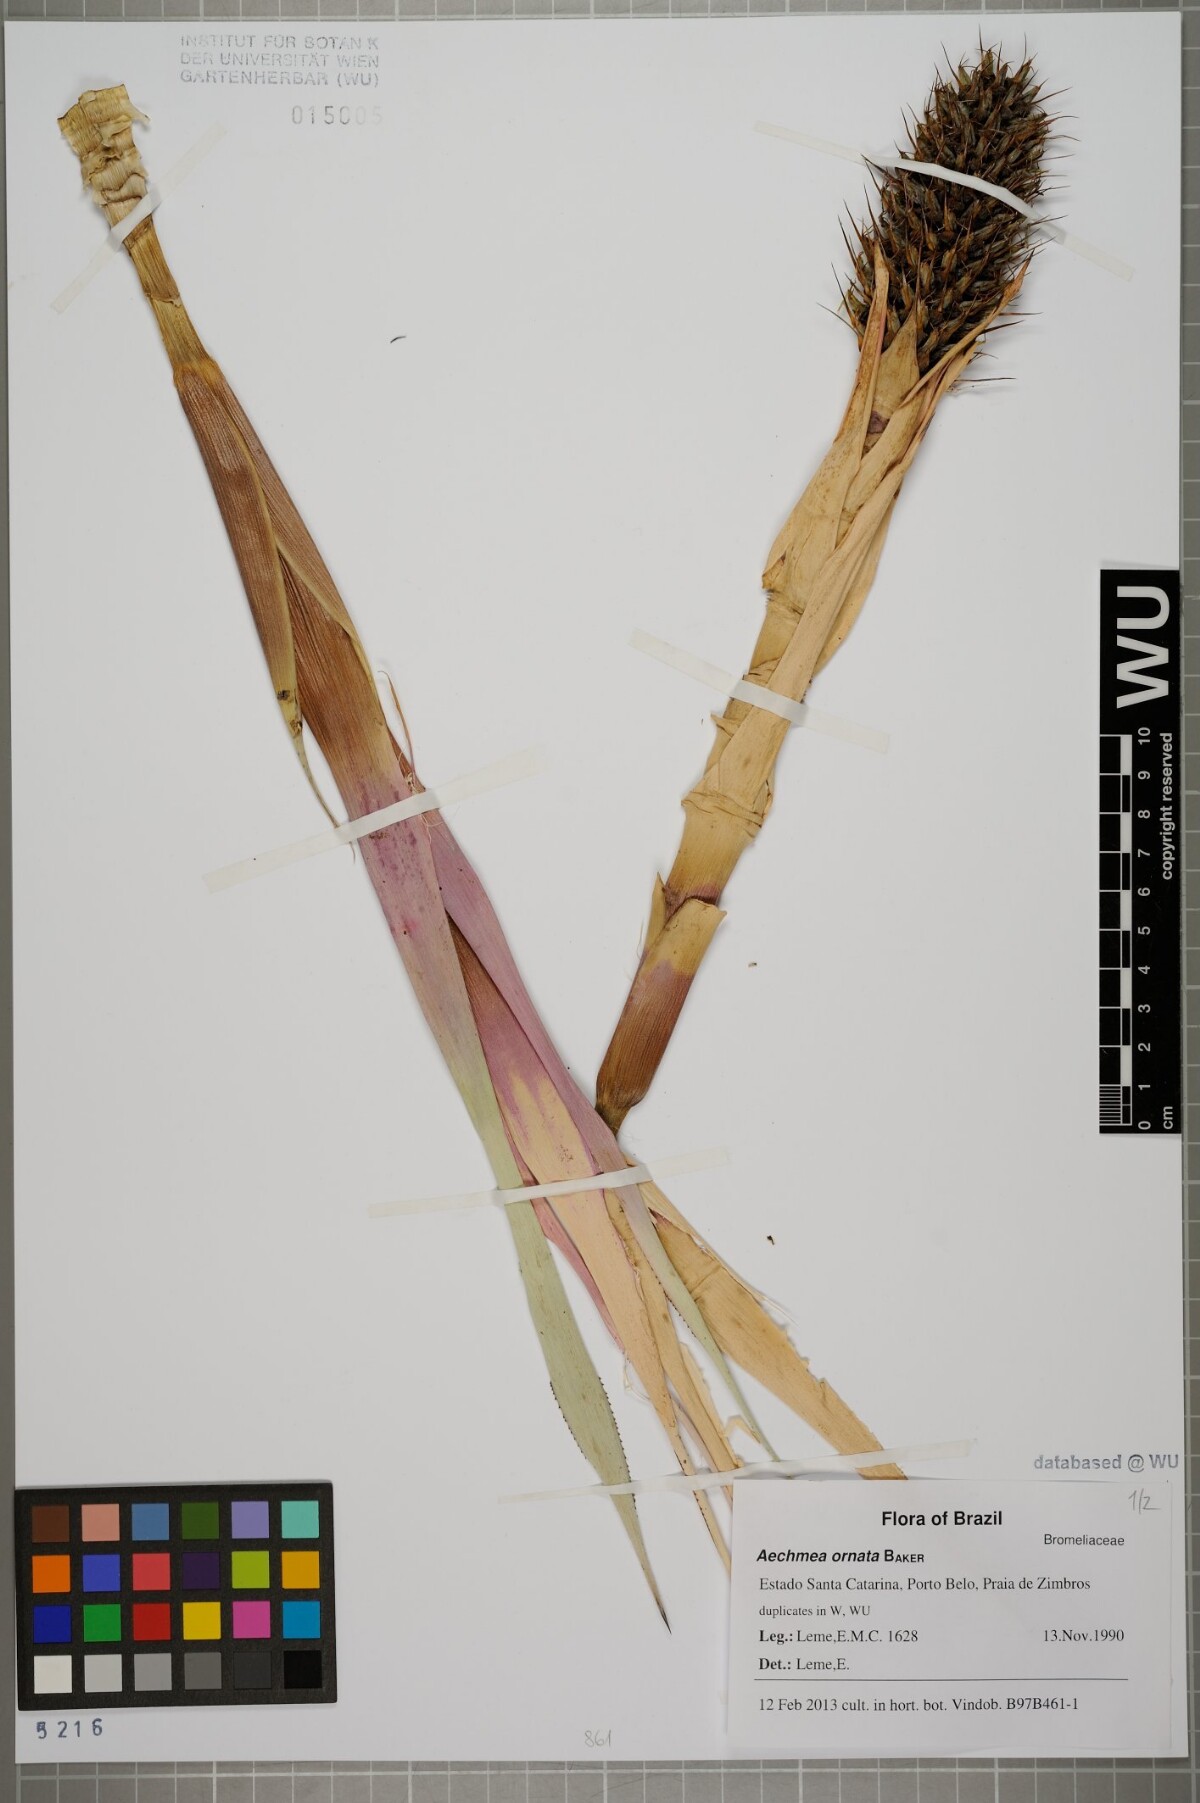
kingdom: Plantae
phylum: Tracheophyta
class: Liliopsida
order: Poales
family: Bromeliaceae
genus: Aechmea
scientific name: Aechmea ornata
